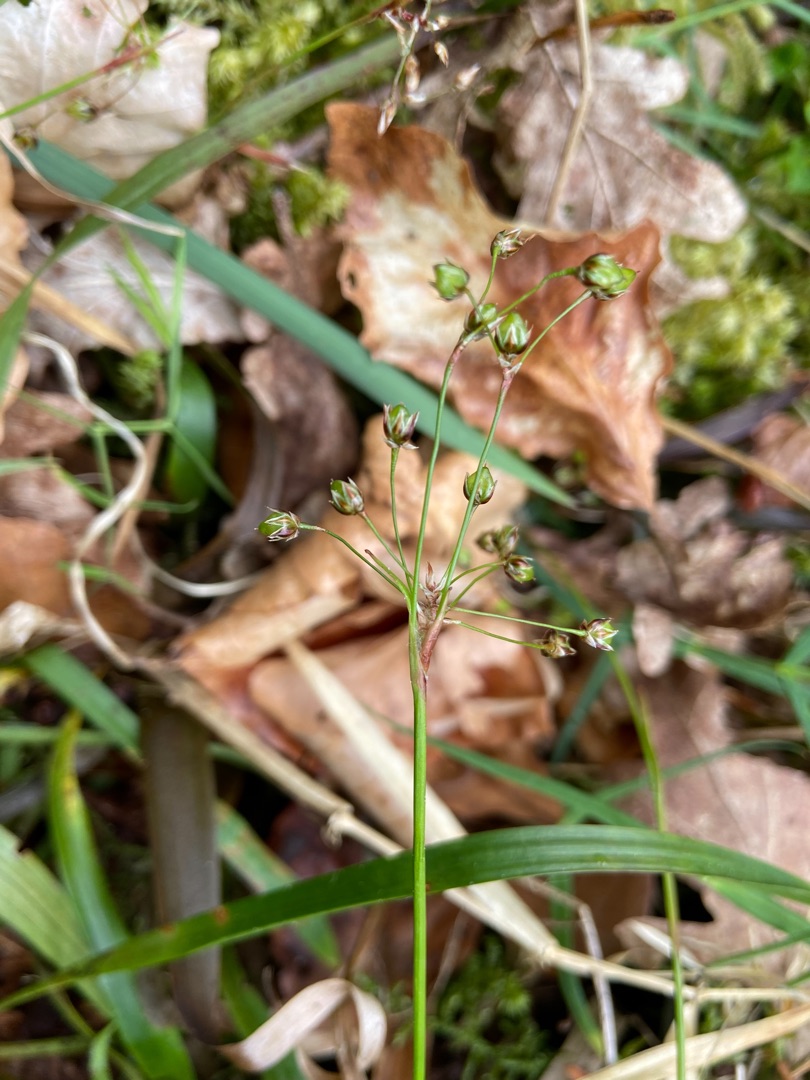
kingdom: Plantae
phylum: Tracheophyta
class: Liliopsida
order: Poales
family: Juncaceae
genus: Luzula
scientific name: Luzula pilosa
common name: Håret frytle
